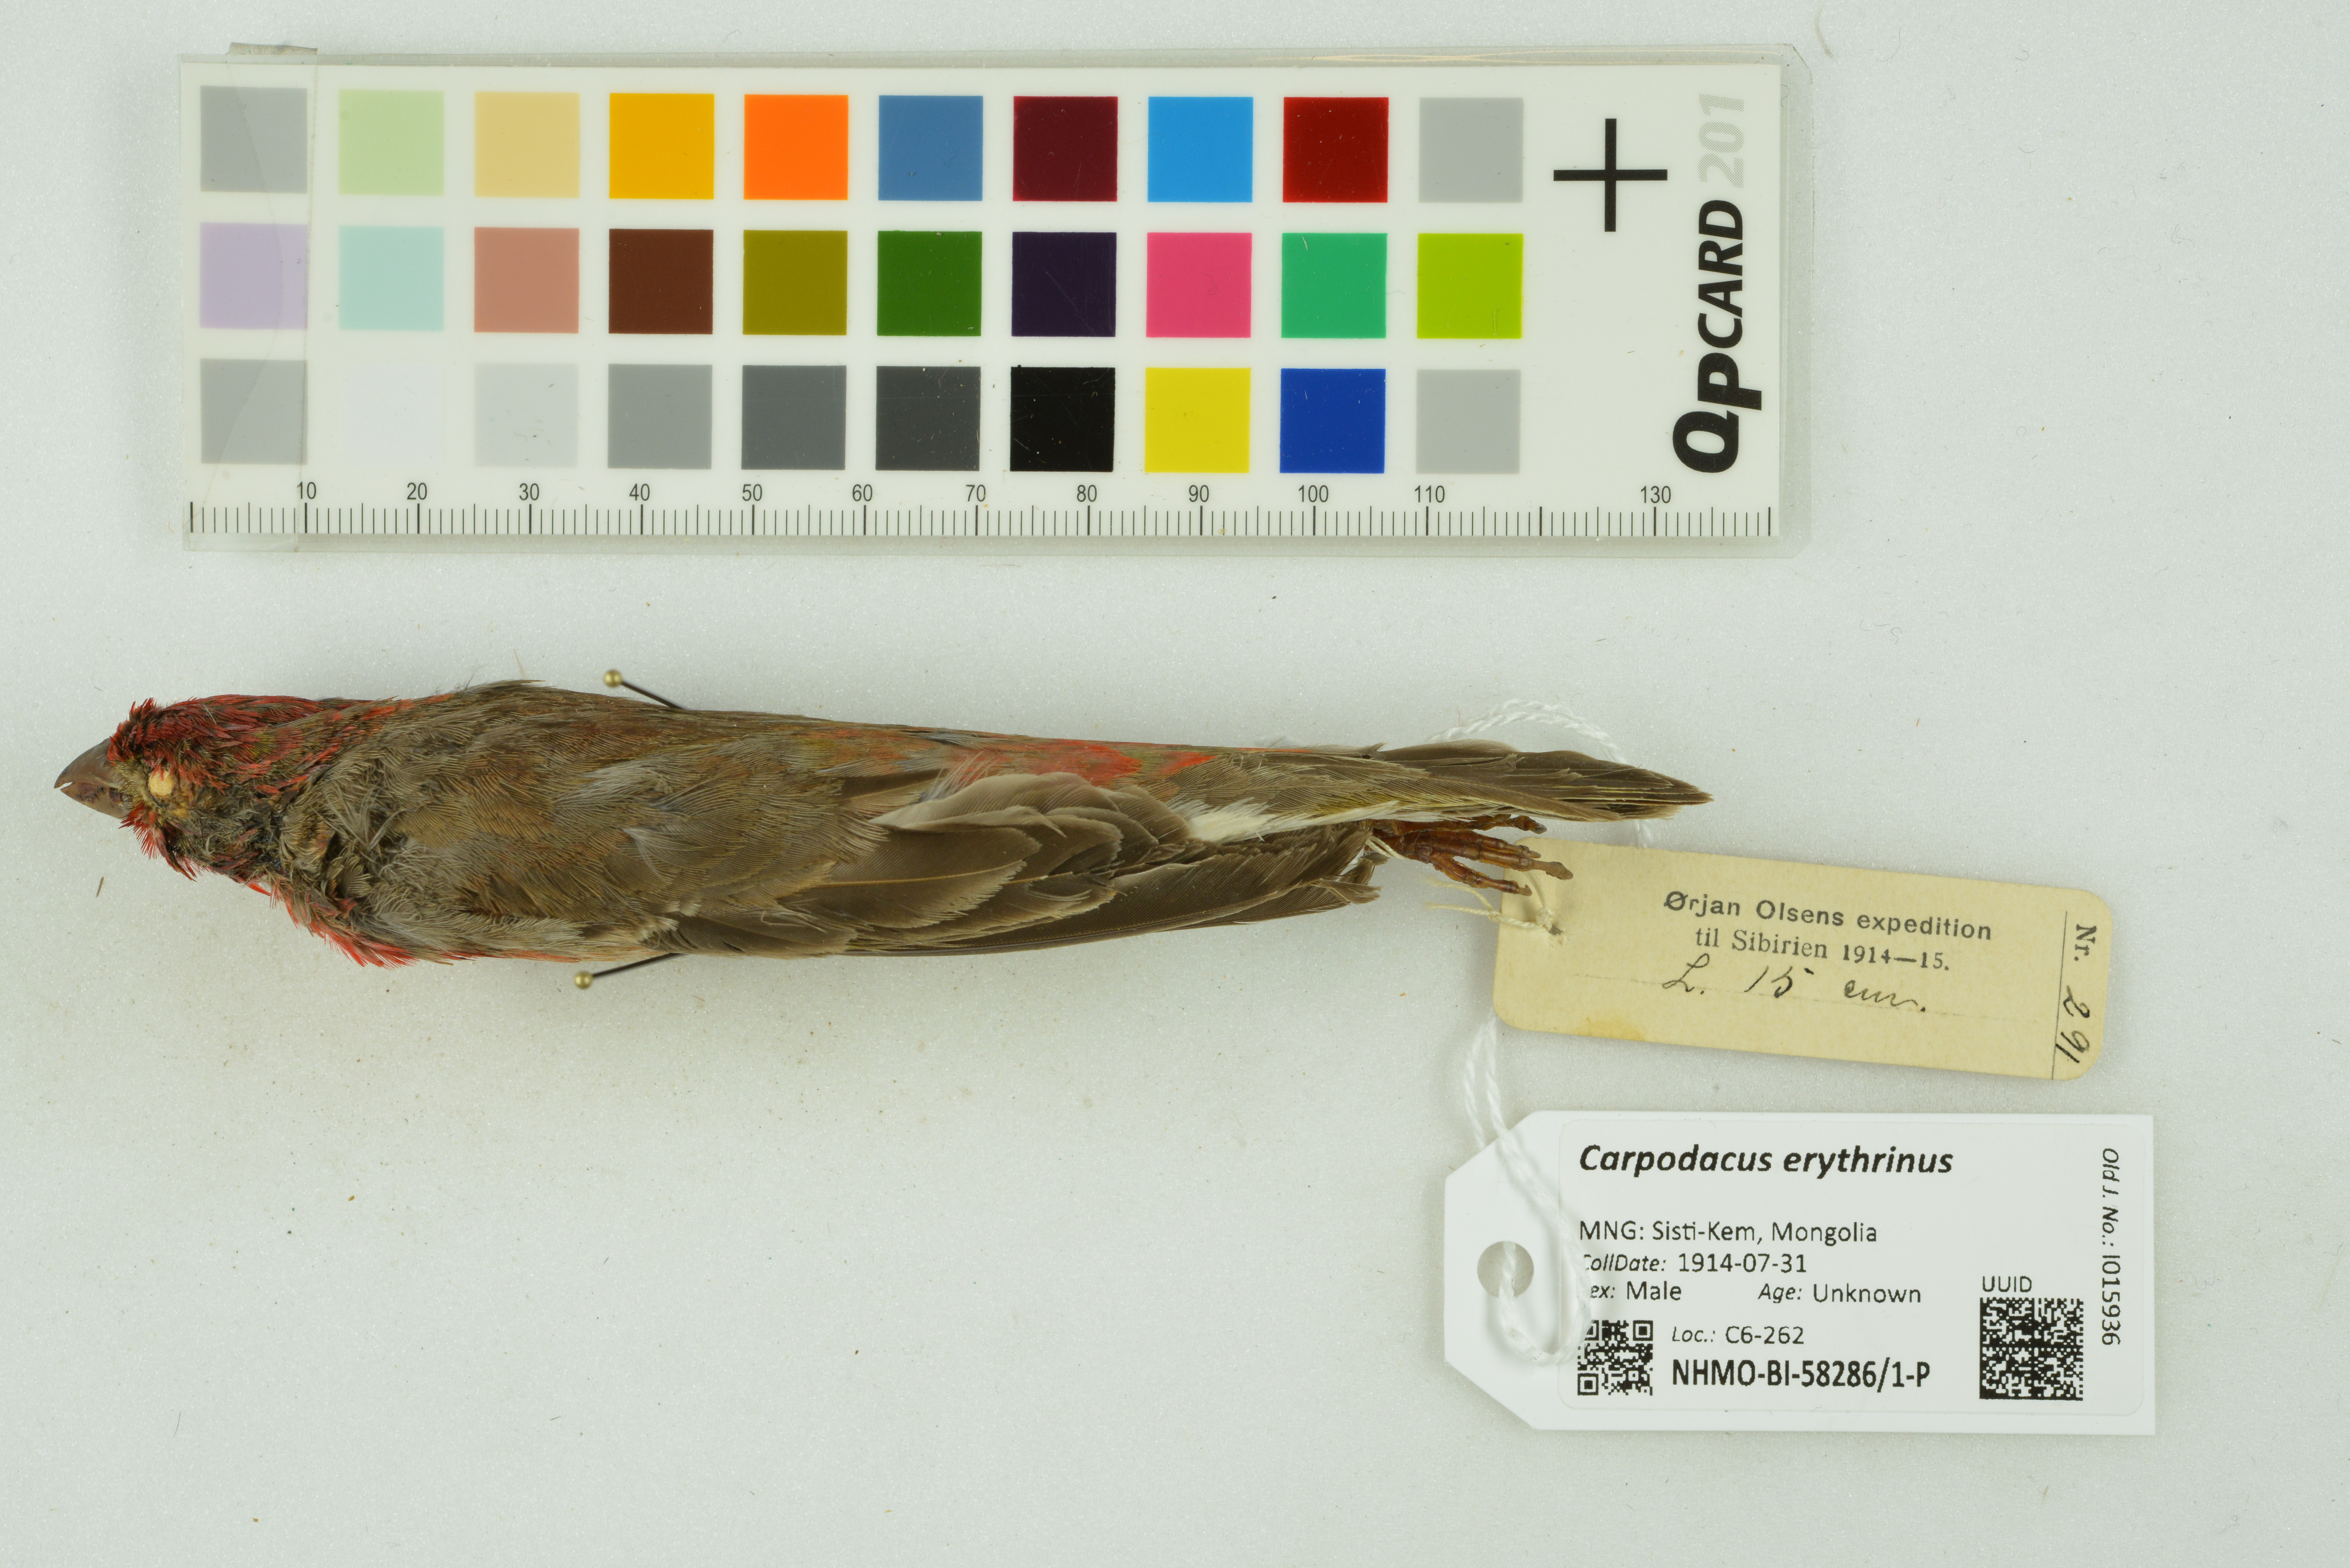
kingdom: Animalia
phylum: Chordata
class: Aves
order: Passeriformes
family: Fringillidae
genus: Carpodacus
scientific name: Carpodacus erythrinus
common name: Common rosefinch
